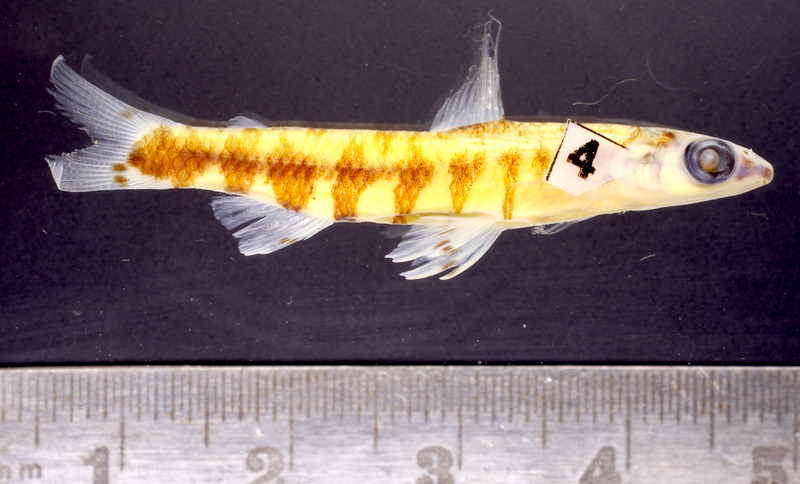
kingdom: Animalia
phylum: Chordata
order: Characiformes
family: Distichodontidae
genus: Nannocharax
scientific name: Nannocharax zebra
